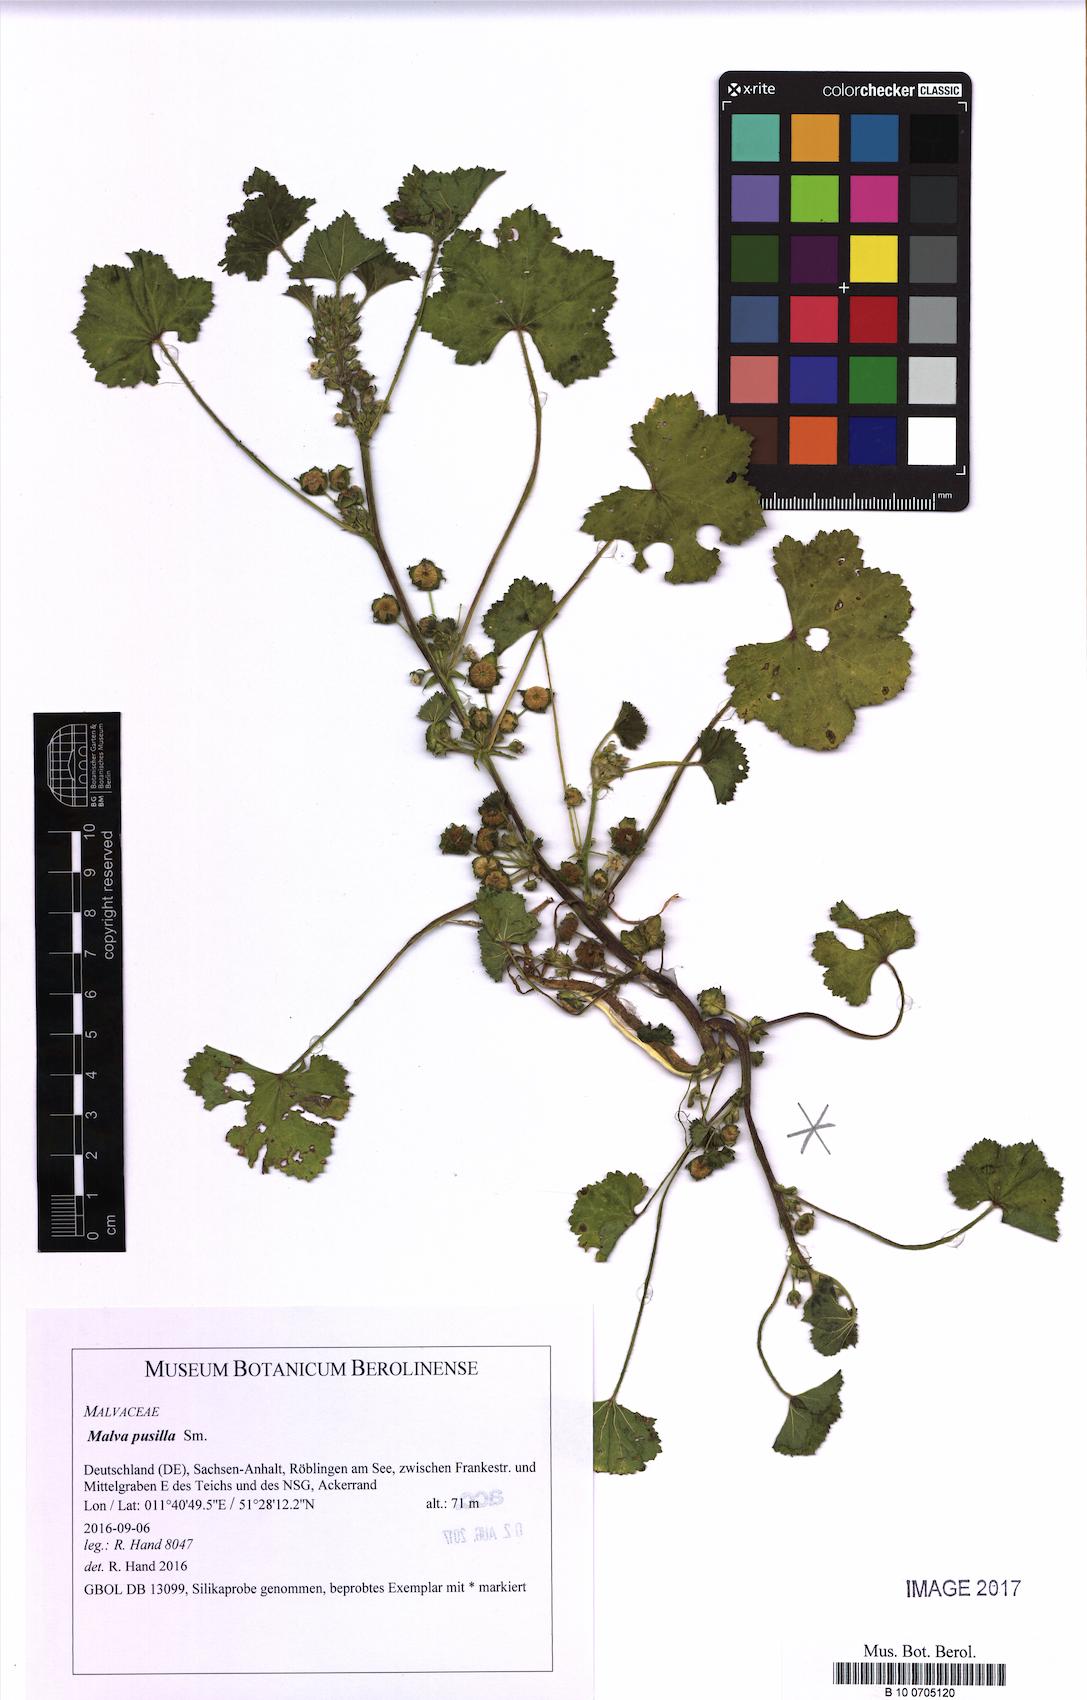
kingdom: Plantae
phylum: Tracheophyta
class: Magnoliopsida
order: Malvales
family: Malvaceae
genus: Malva
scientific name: Malva pusilla
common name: Small mallow
